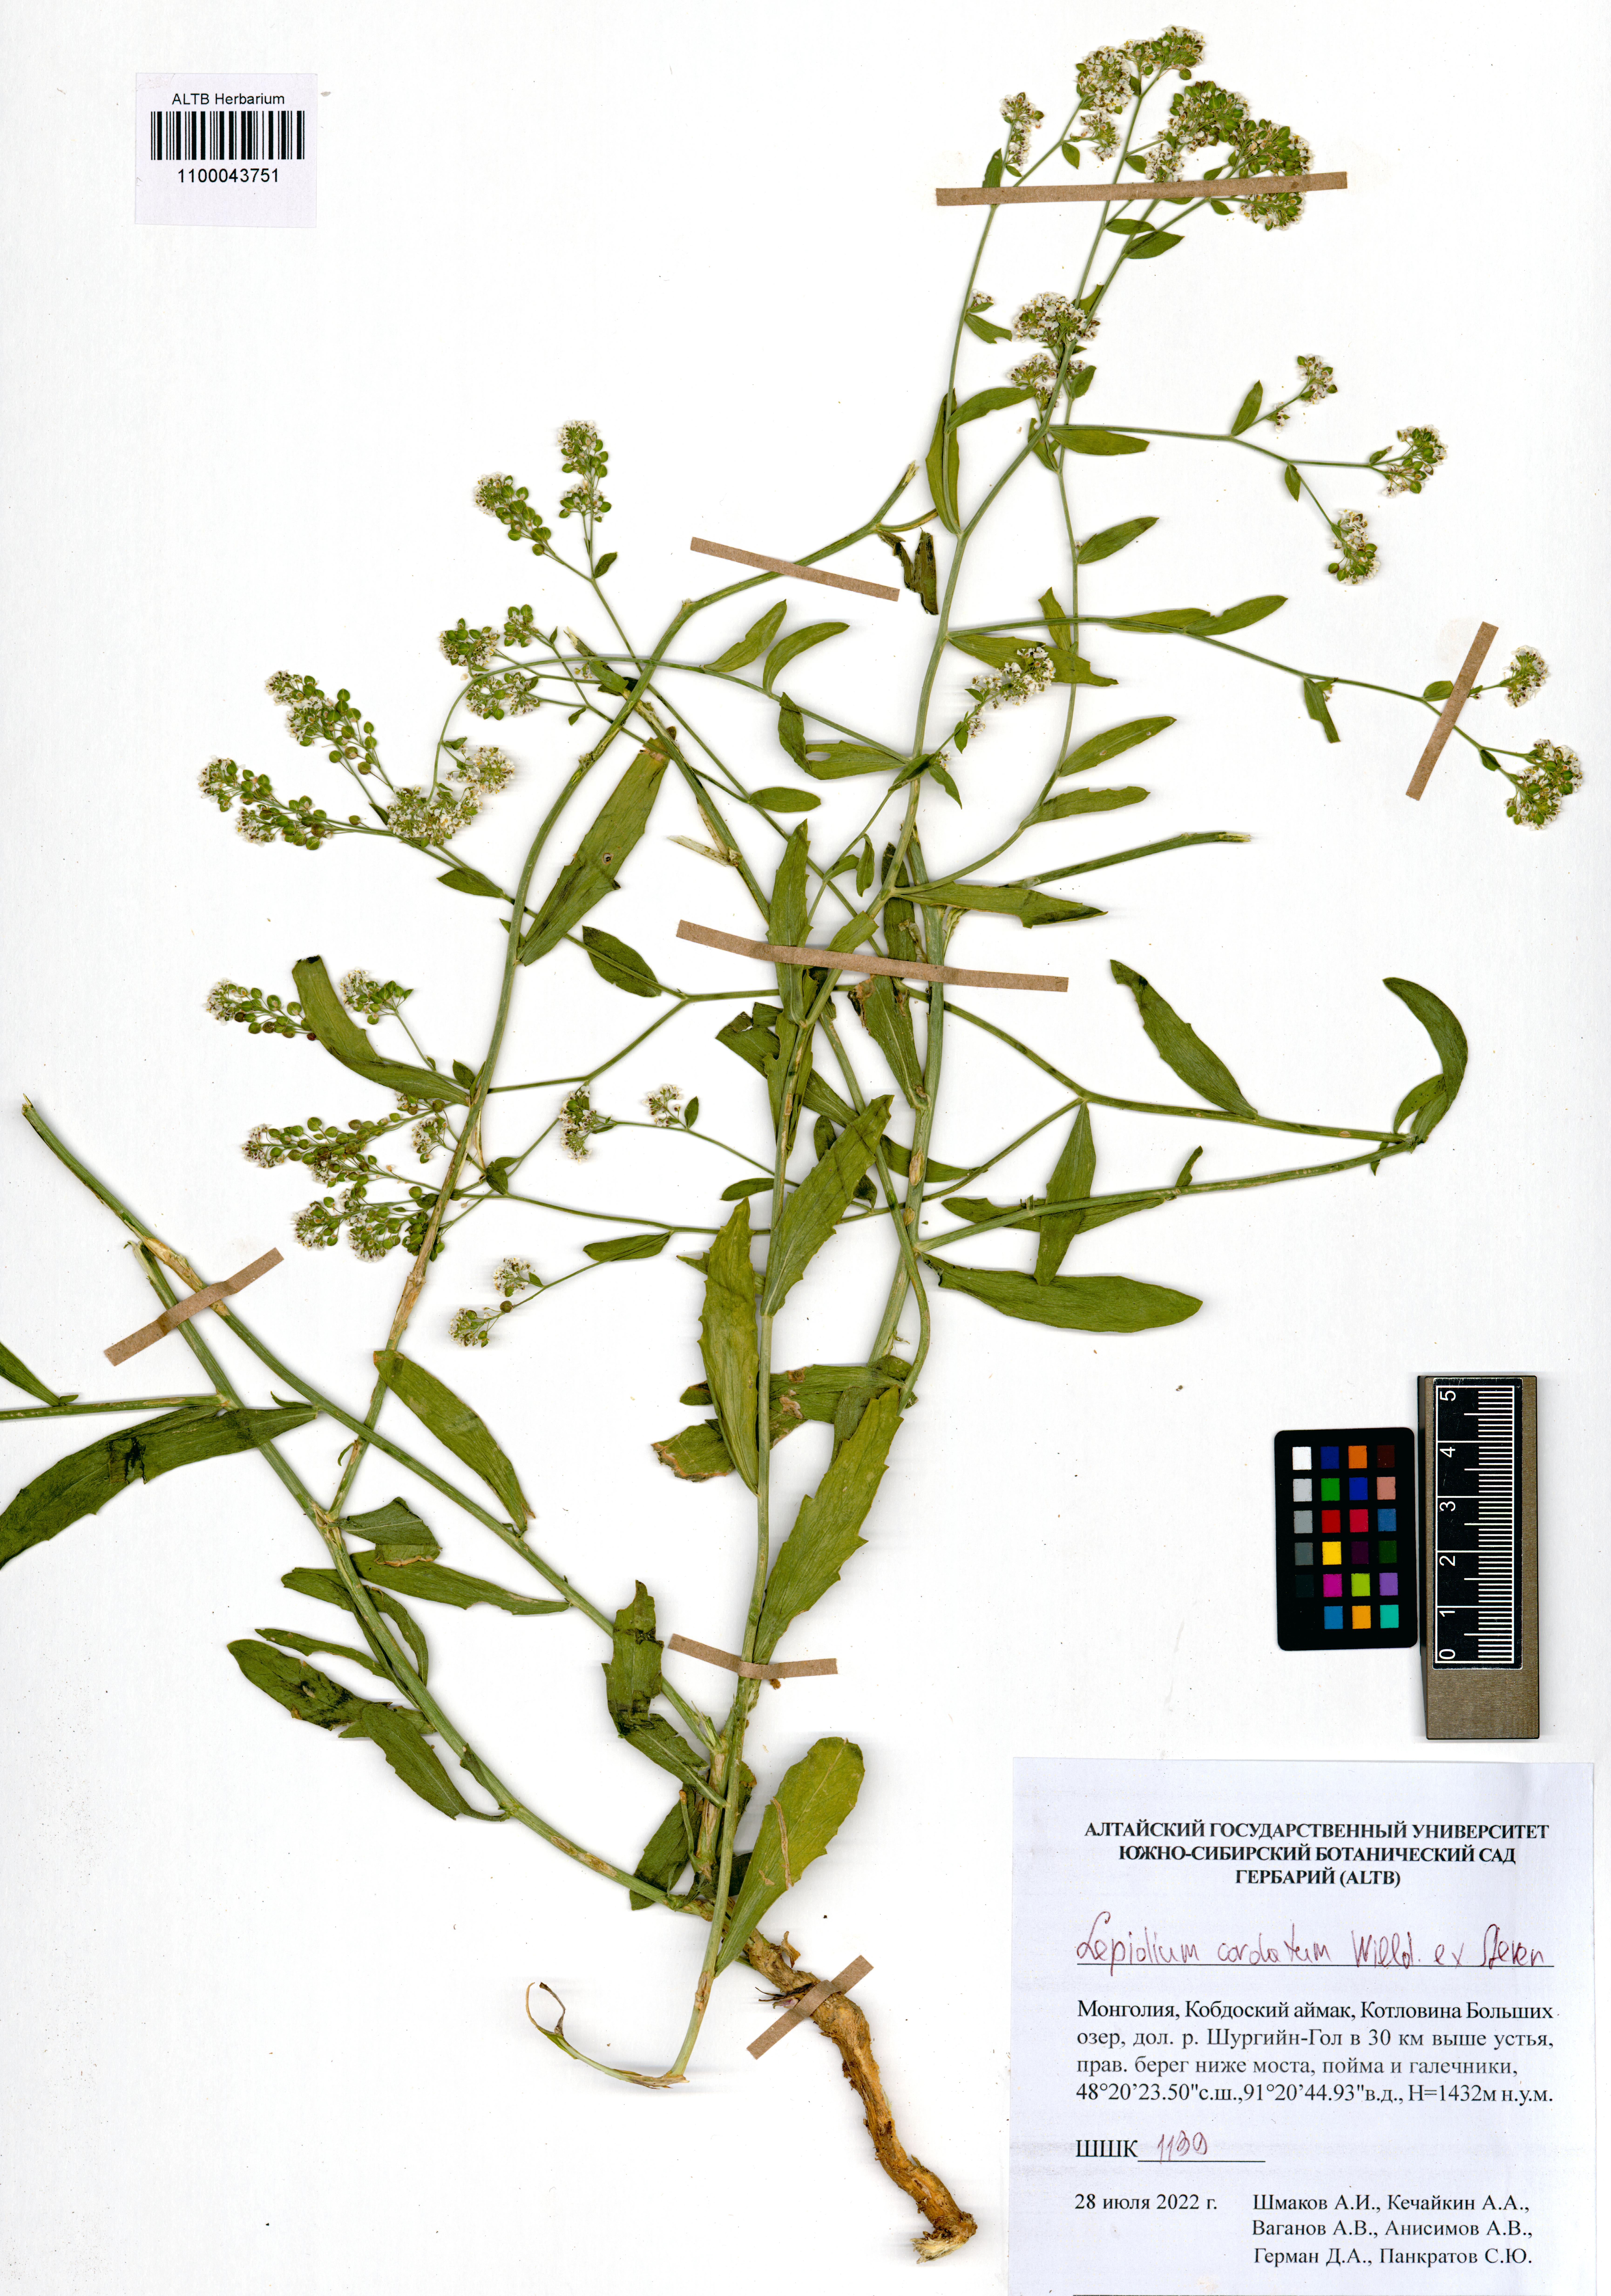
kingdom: Plantae
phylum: Tracheophyta
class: Magnoliopsida
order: Brassicales
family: Brassicaceae
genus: Lepidium
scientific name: Lepidium cordatum
